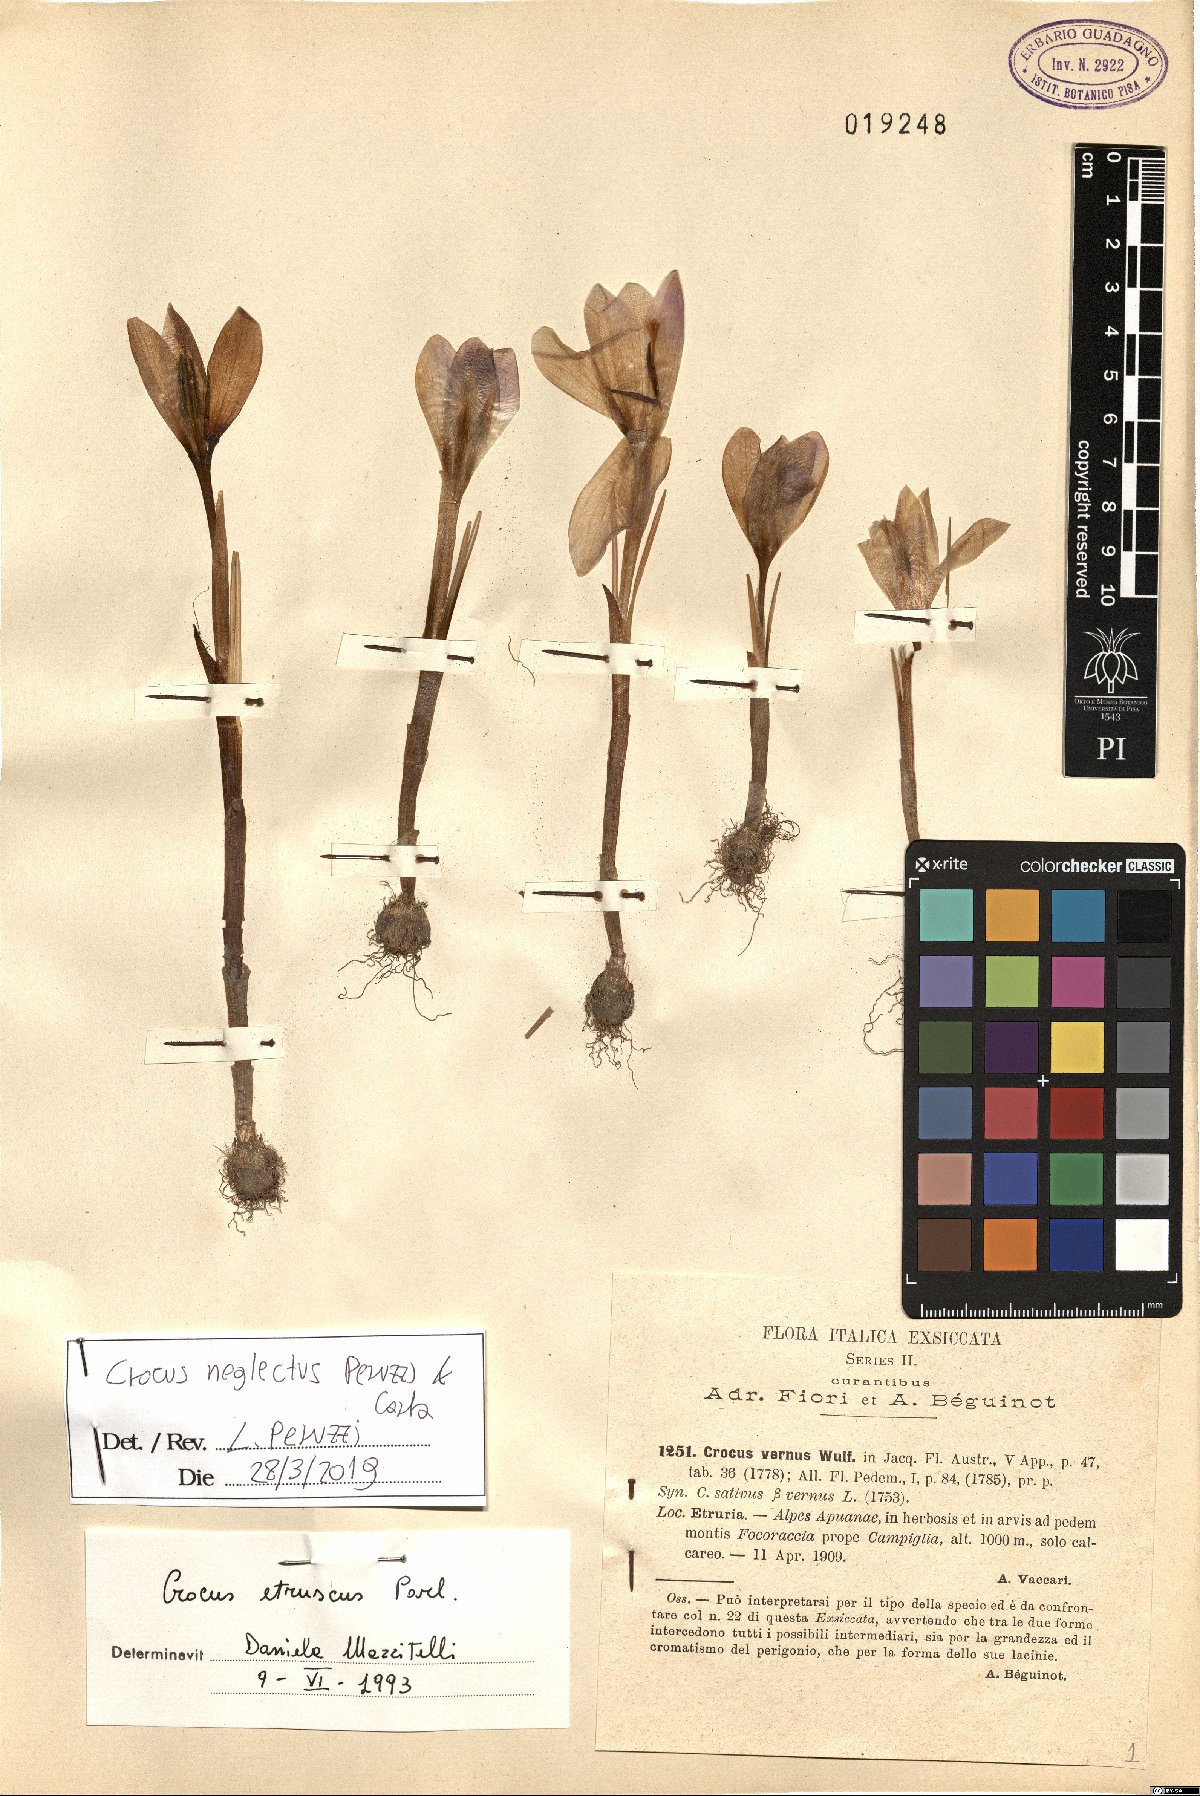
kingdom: Plantae
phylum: Tracheophyta
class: Liliopsida
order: Asparagales
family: Iridaceae
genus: Crocus
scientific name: Crocus neglectus
